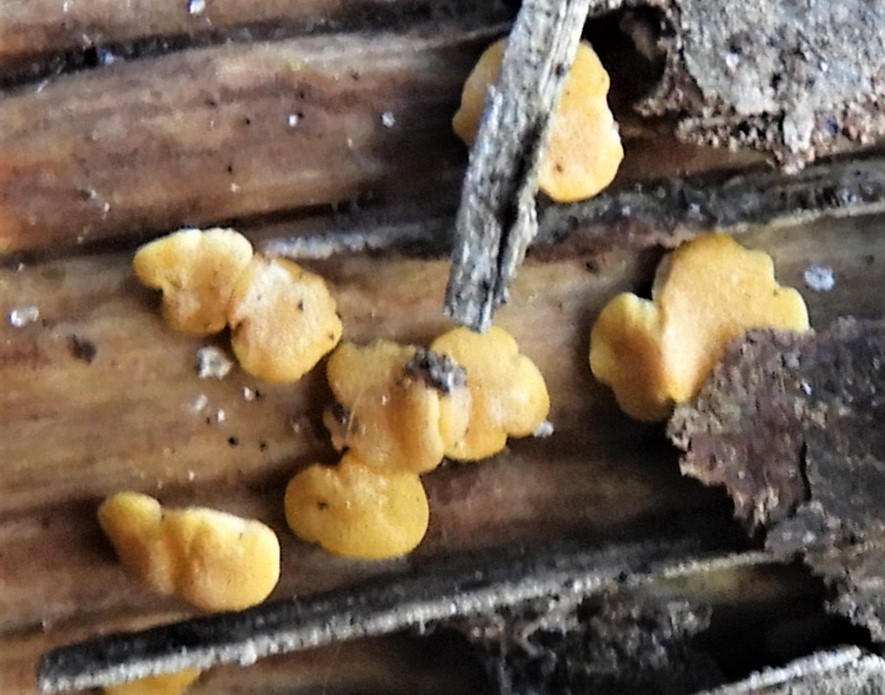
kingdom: Fungi
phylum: Ascomycota
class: Sordariomycetes
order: Hypocreales
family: Hypocreaceae
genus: Trichoderma
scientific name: Trichoderma aureoviride
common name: æggegul kødkerne
